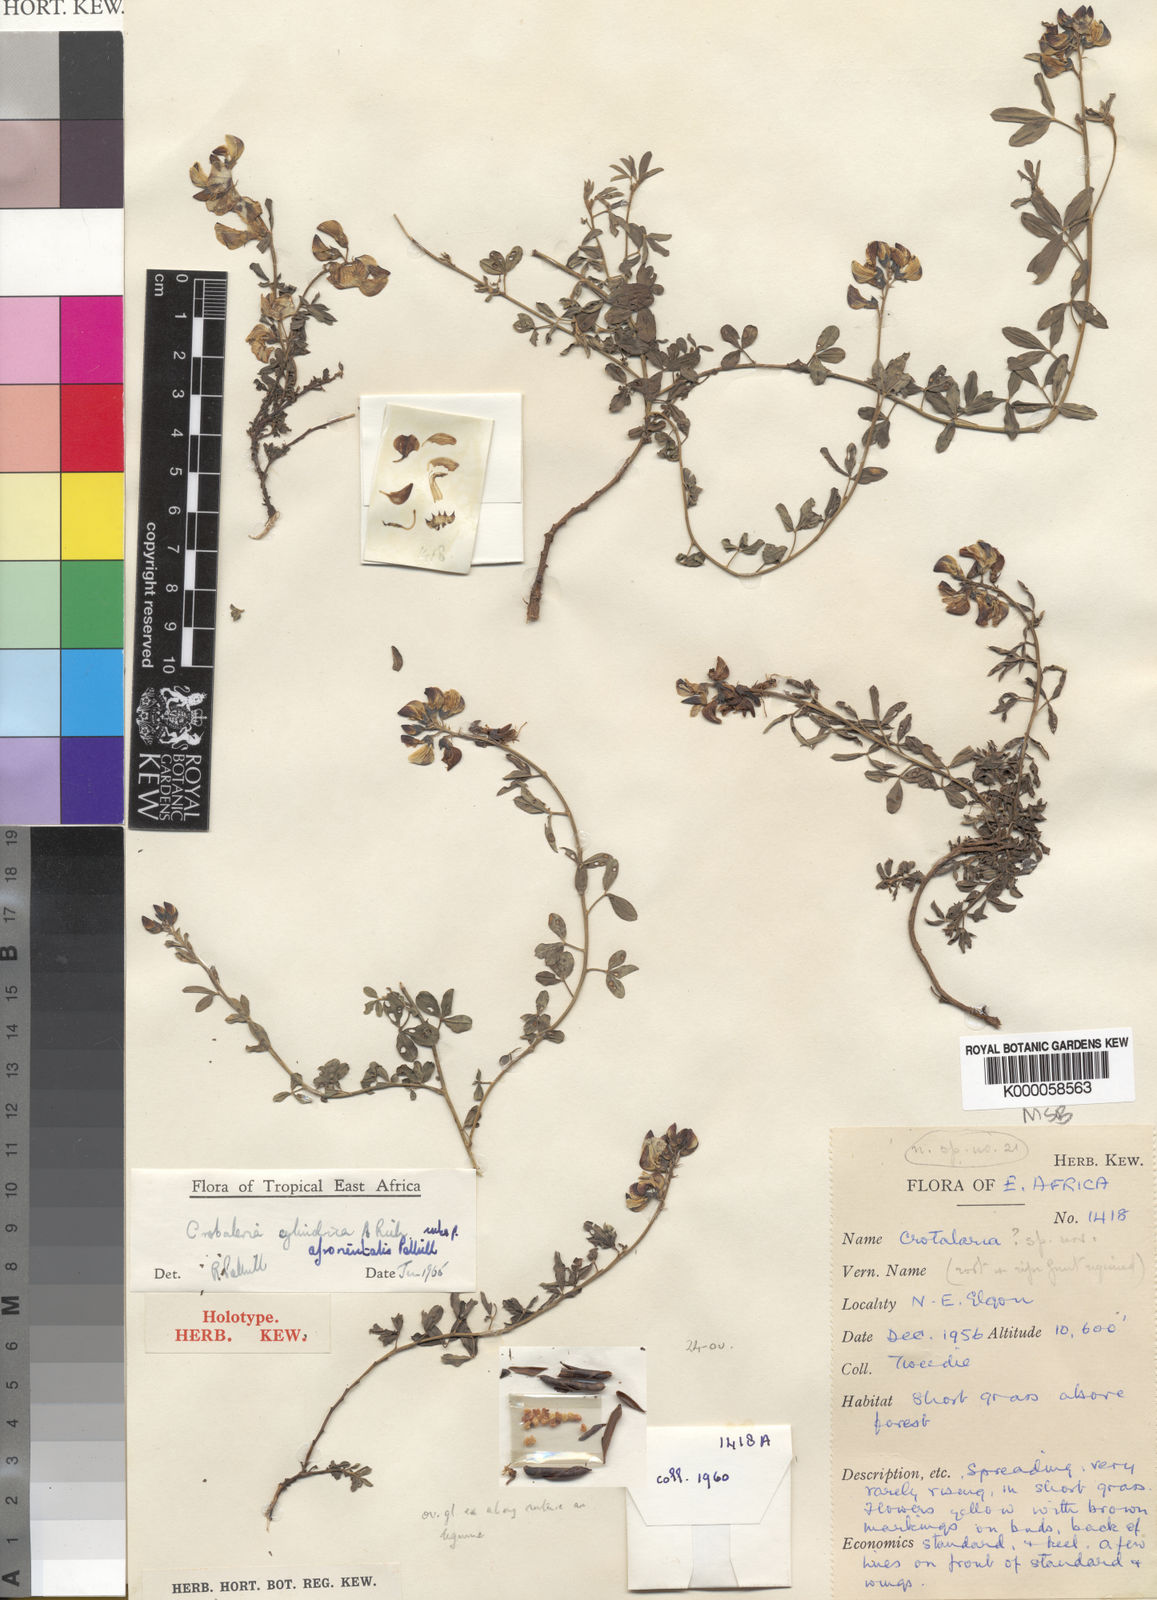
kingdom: Plantae
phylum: Tracheophyta
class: Magnoliopsida
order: Fabales
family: Fabaceae
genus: Crotalaria
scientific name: Crotalaria cylindrica
